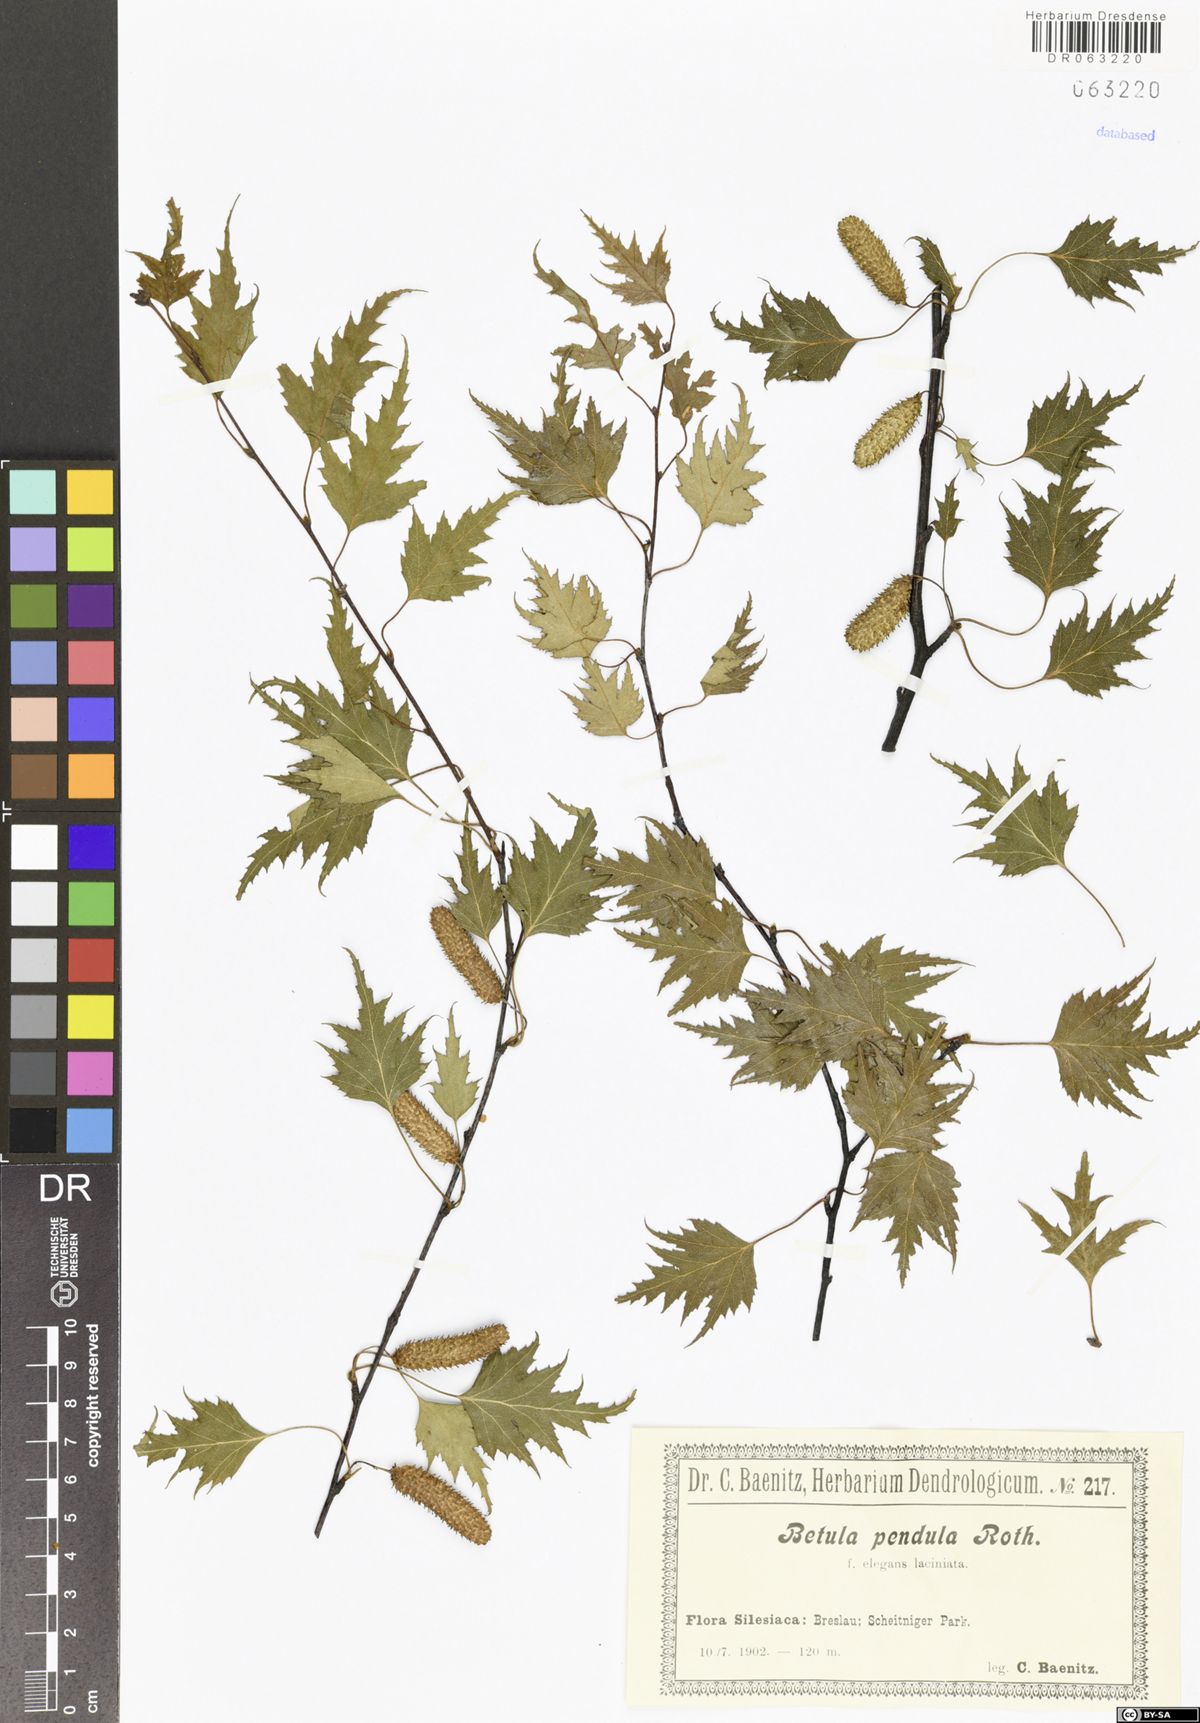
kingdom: Plantae
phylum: Tracheophyta
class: Magnoliopsida
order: Fagales
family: Betulaceae
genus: Betula
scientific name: Betula pendula
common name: Silver birch
